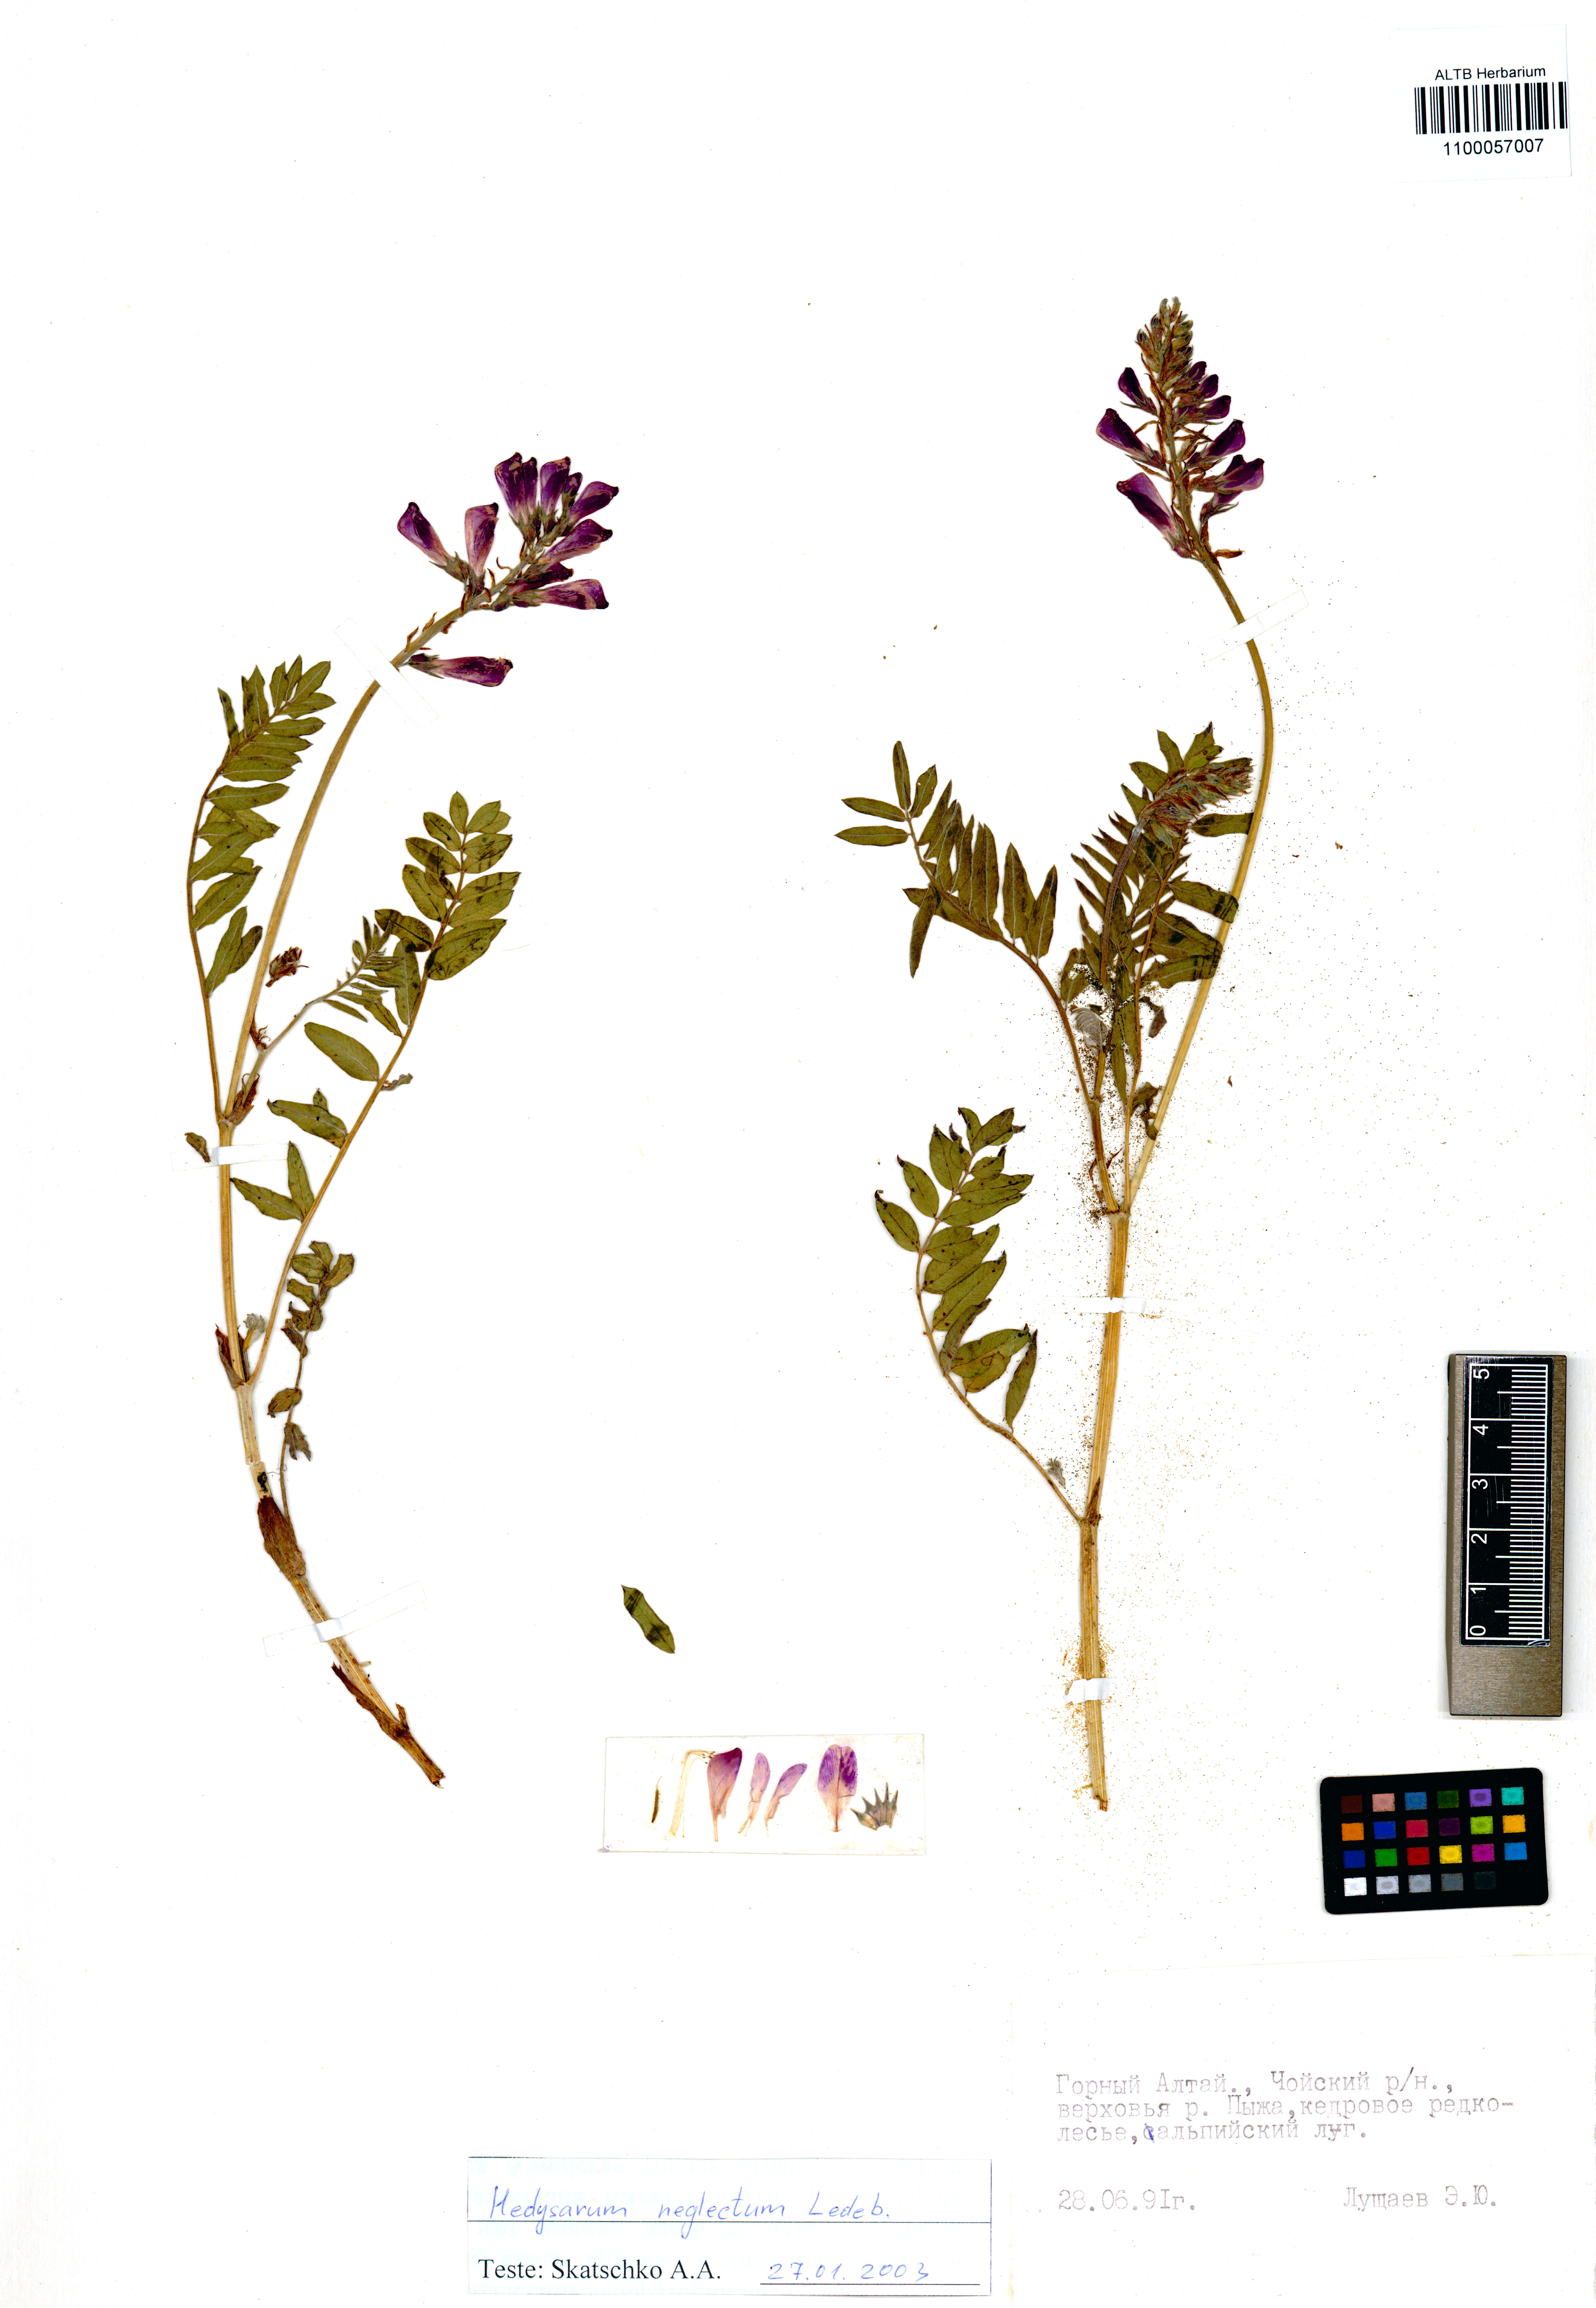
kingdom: Plantae
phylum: Tracheophyta
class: Magnoliopsida
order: Fabales
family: Fabaceae
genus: Hedysarum
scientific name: Hedysarum neglectum
